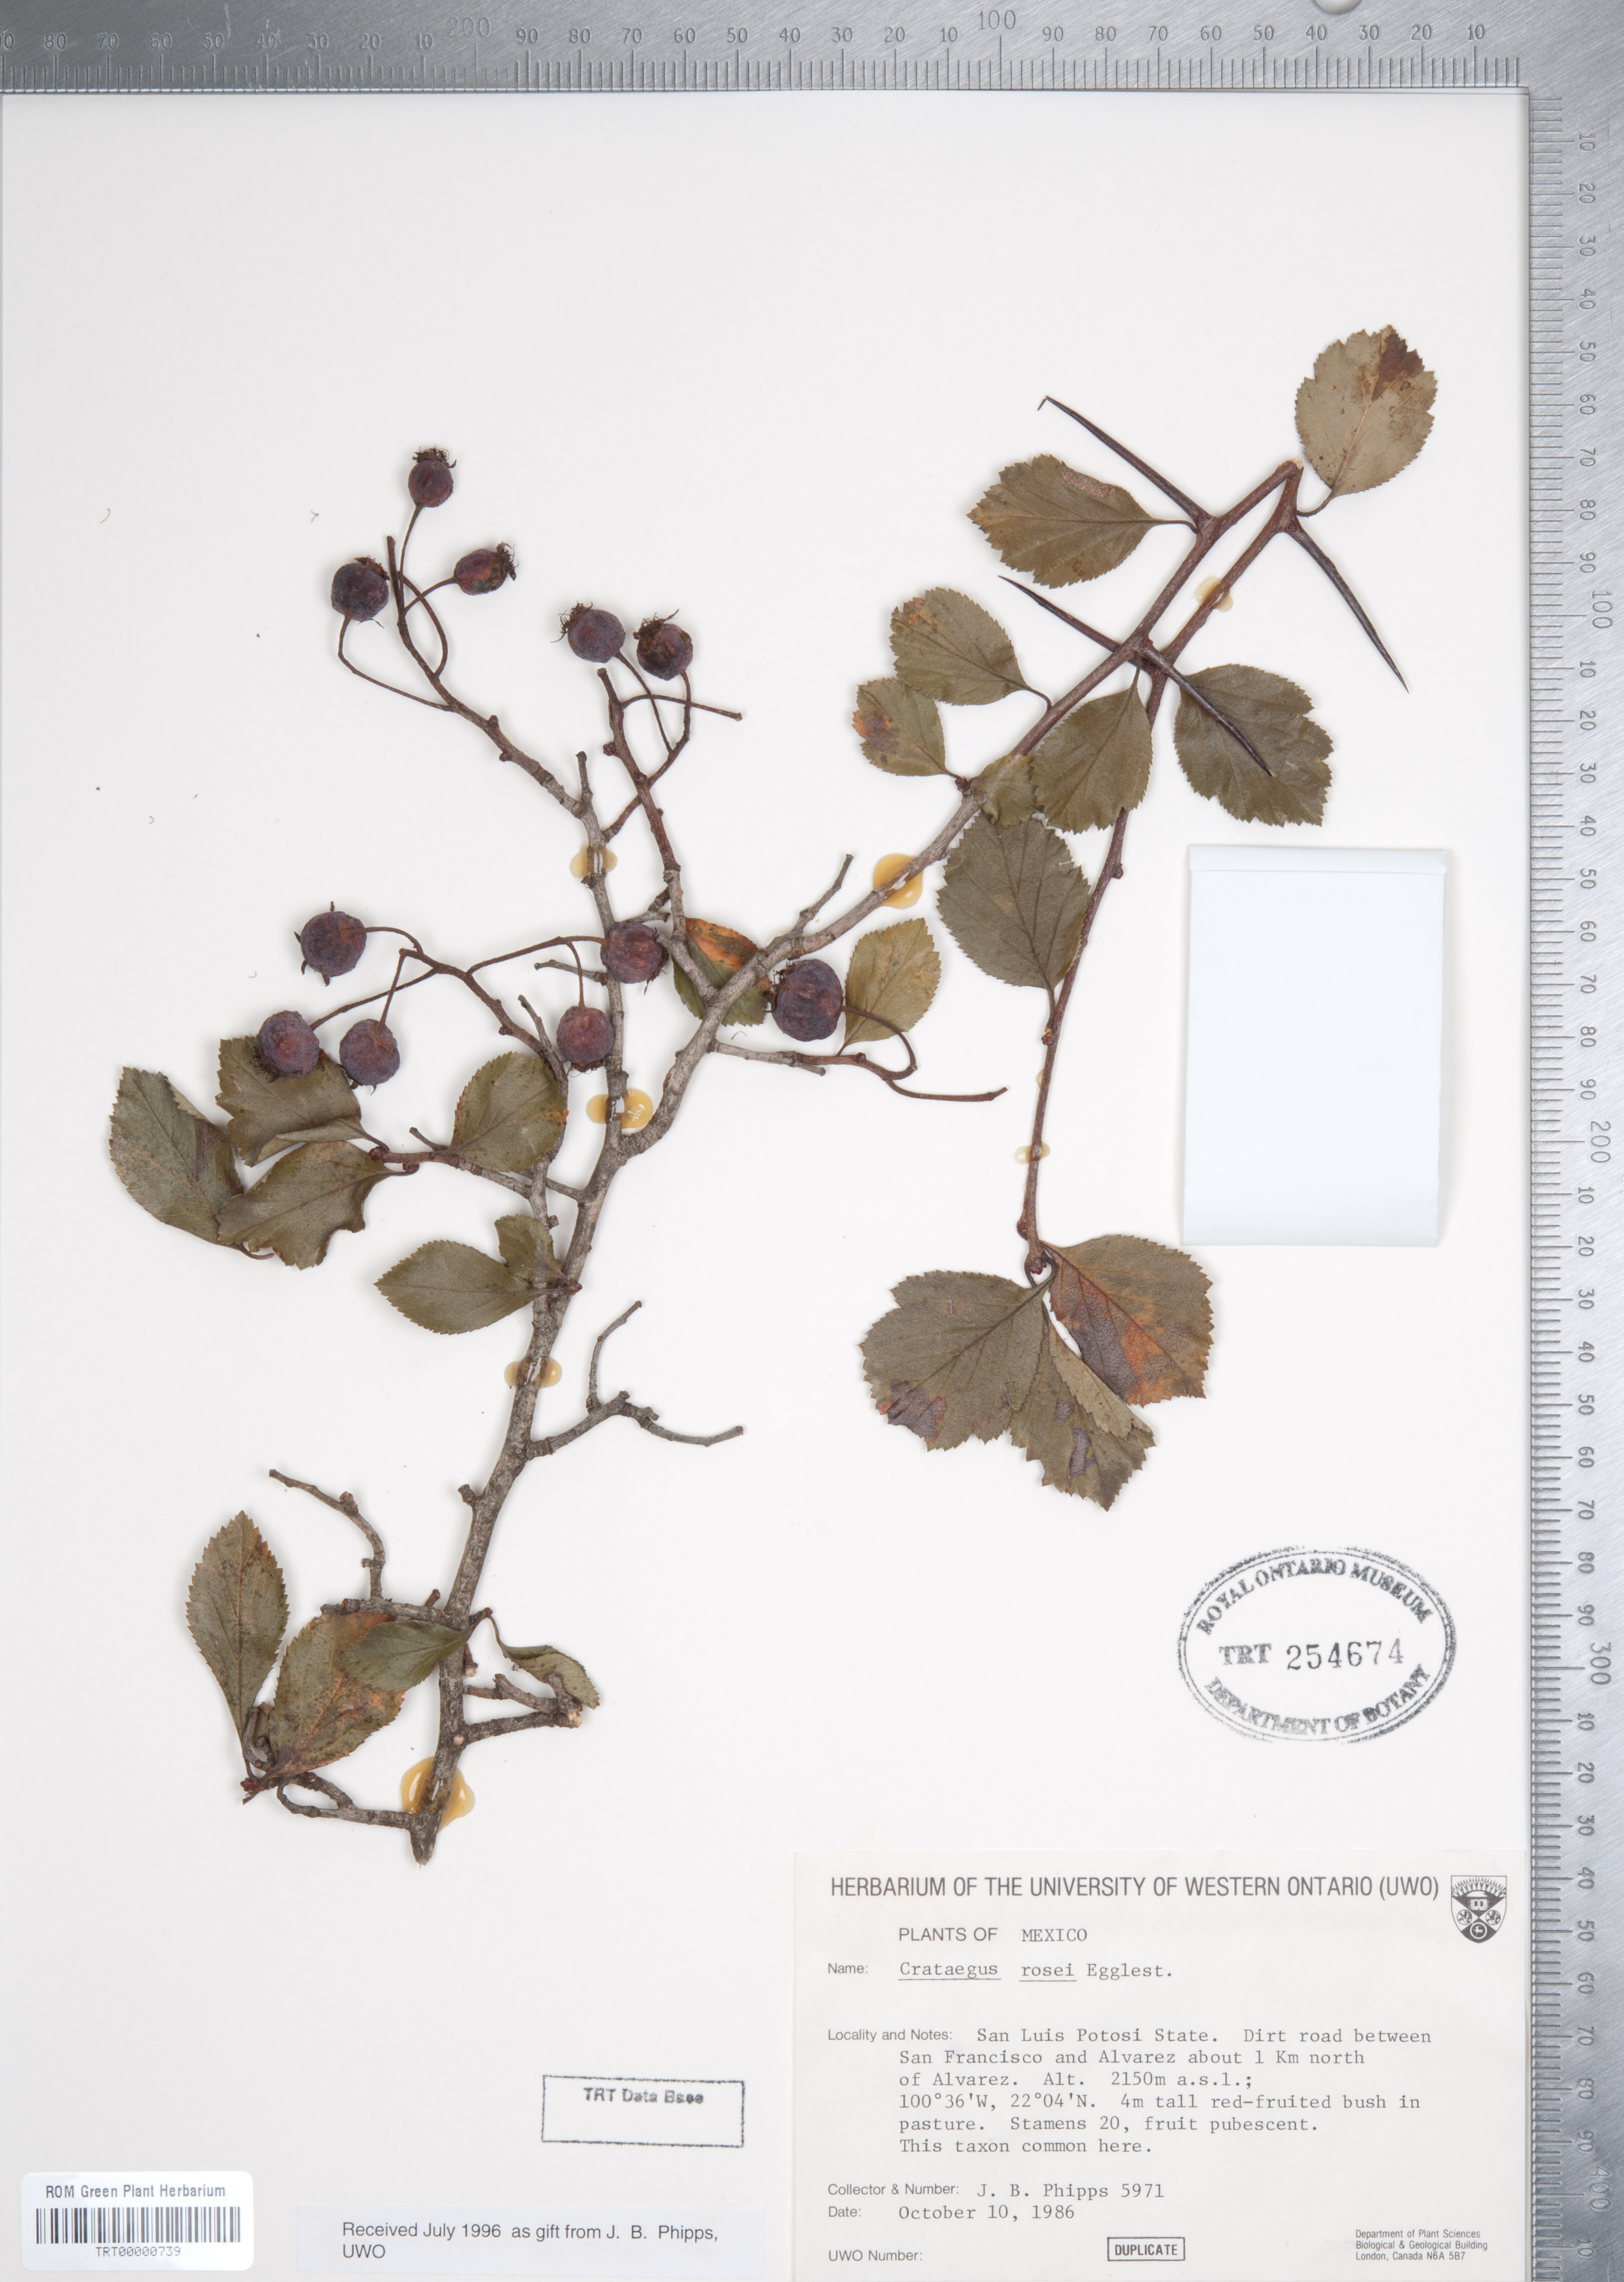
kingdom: Plantae
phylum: Tracheophyta
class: Magnoliopsida
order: Rosales
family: Rosaceae
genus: Crataegus
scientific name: Crataegus rosei
